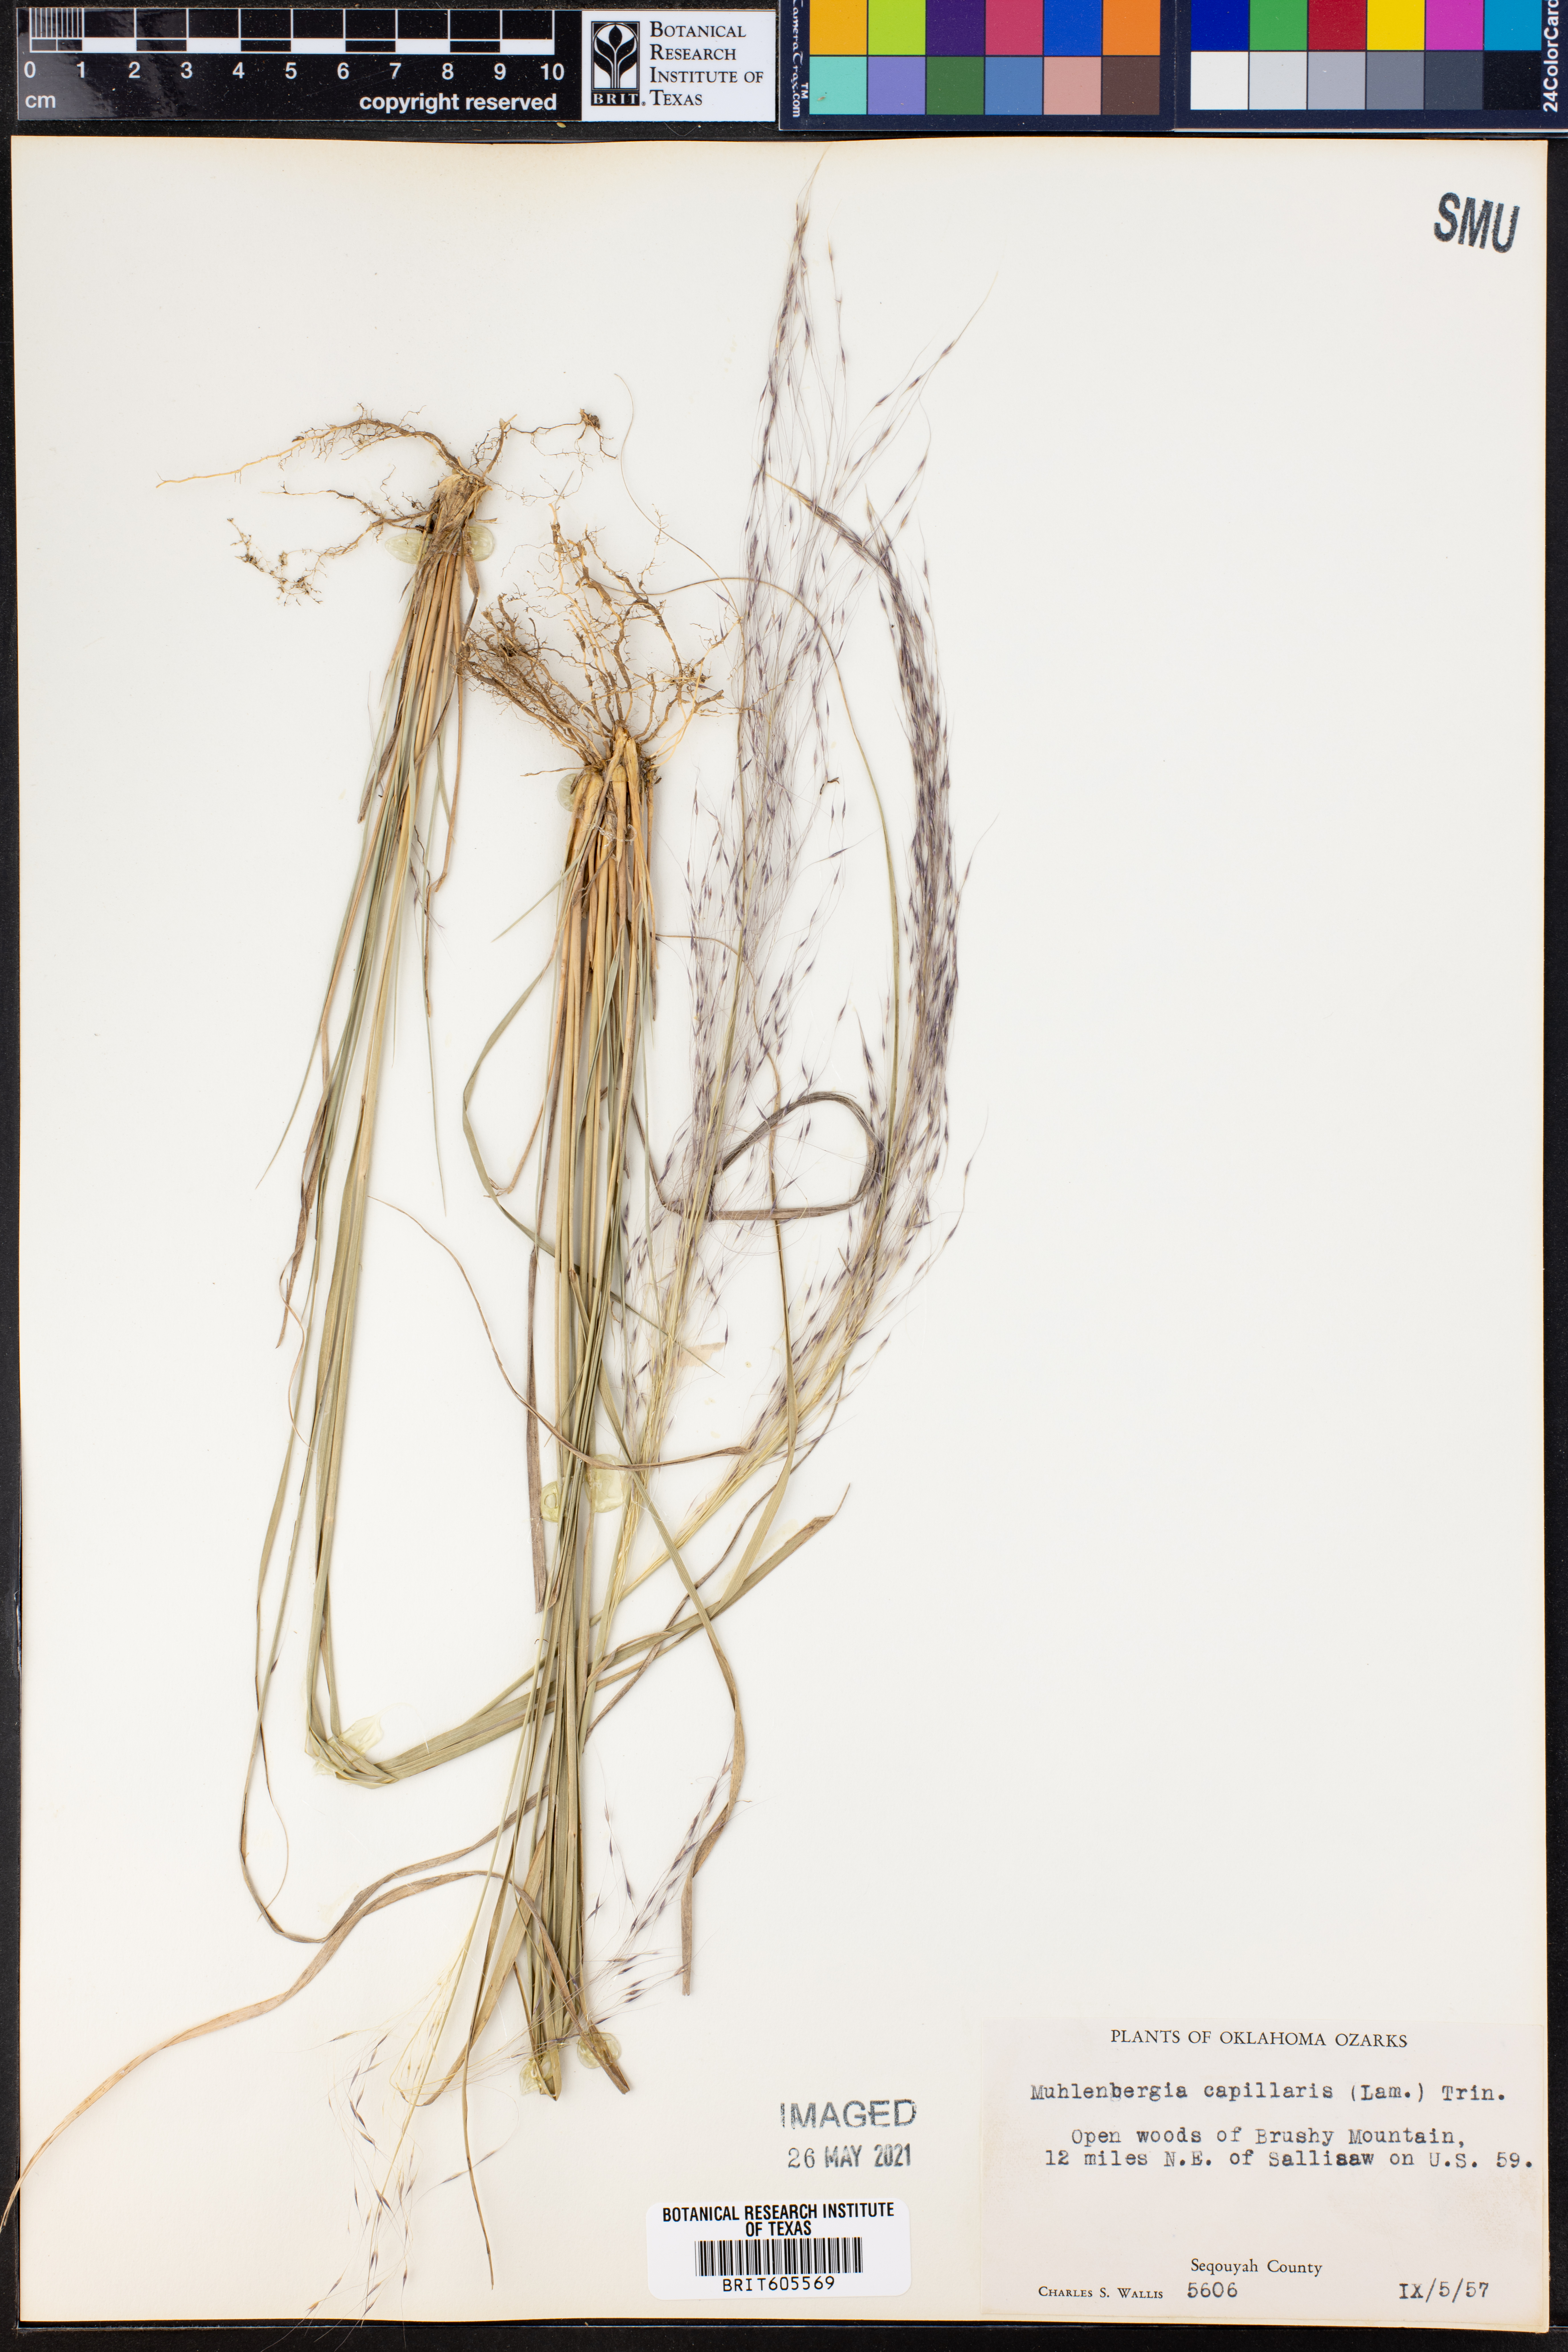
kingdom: Plantae
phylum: Tracheophyta
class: Liliopsida
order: Poales
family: Poaceae
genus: Muhlenbergia
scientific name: Muhlenbergia capillaris
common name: Purple grass
